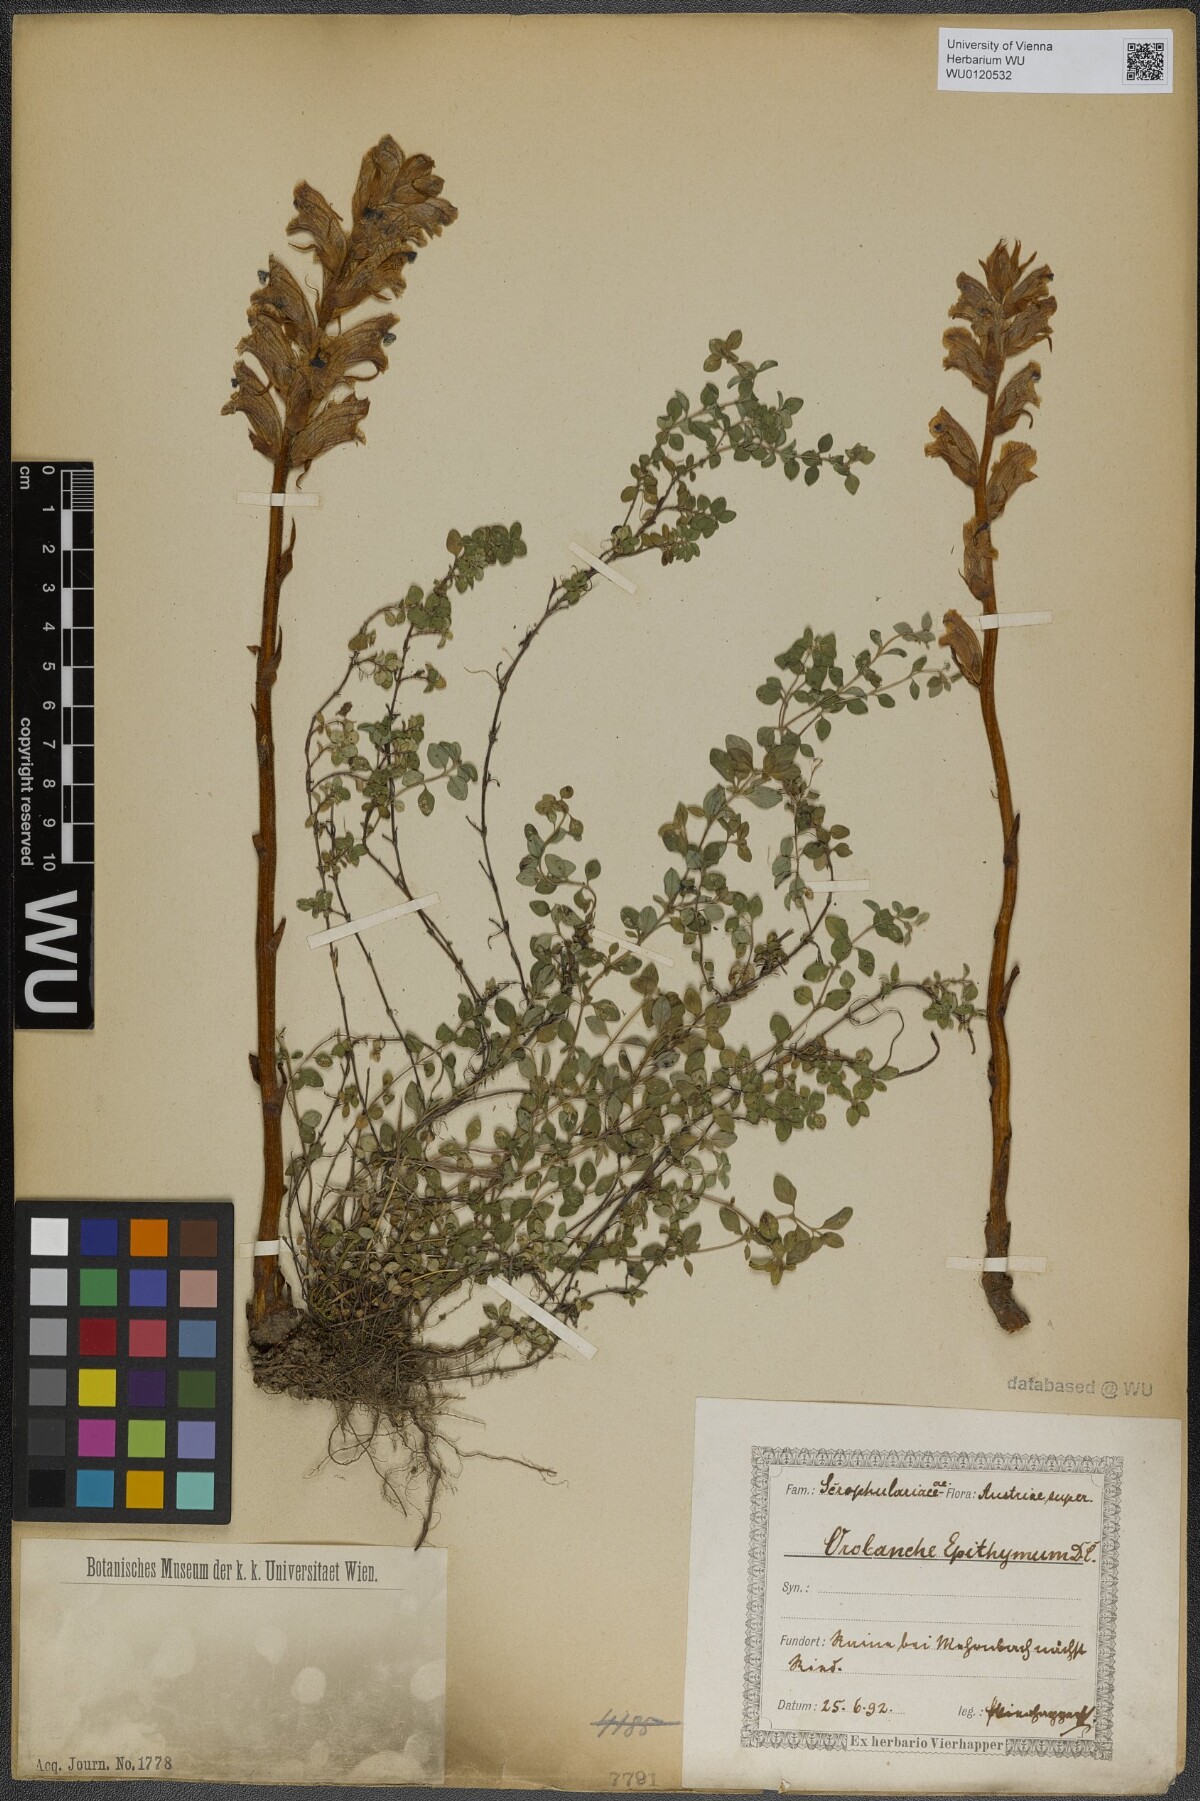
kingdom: Plantae
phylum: Tracheophyta
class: Magnoliopsida
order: Lamiales
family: Orobanchaceae
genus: Orobanche
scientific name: Orobanche alba
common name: Thyme broomrape
